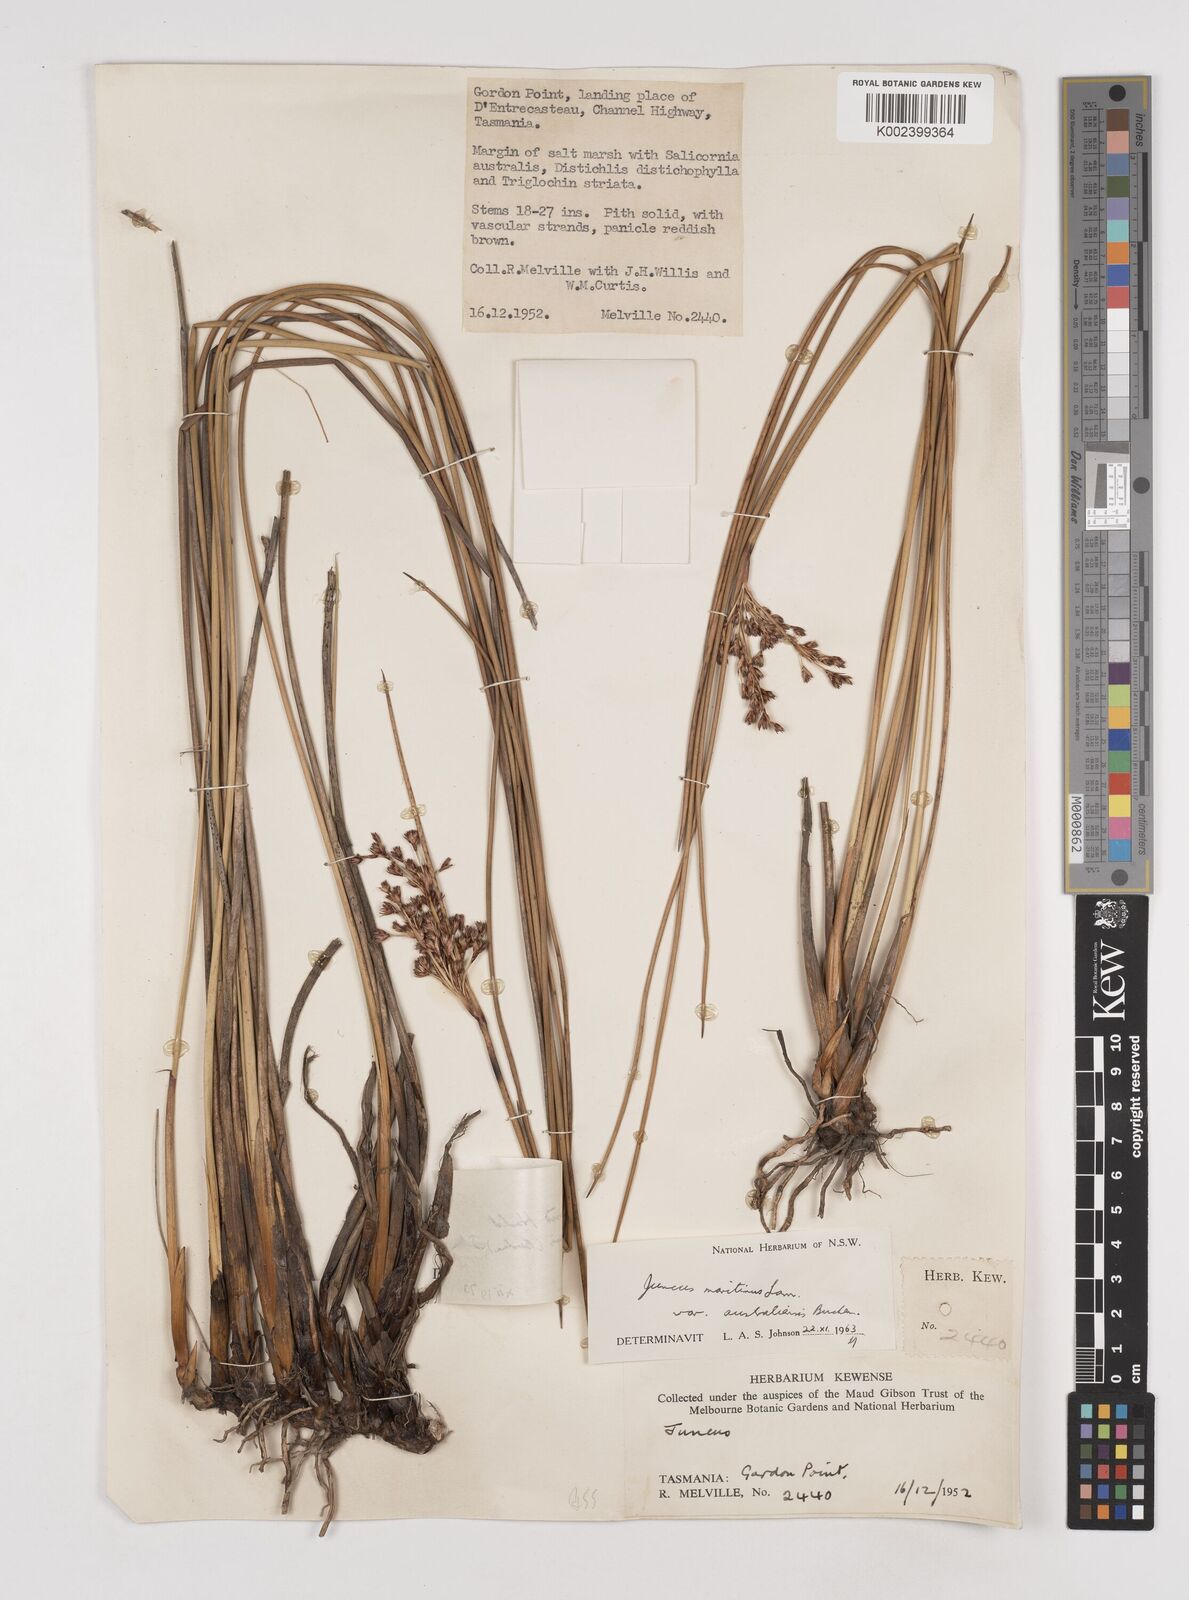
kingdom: Plantae
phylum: Tracheophyta
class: Liliopsida
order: Poales
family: Juncaceae
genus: Juncus
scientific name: Juncus kraussii
